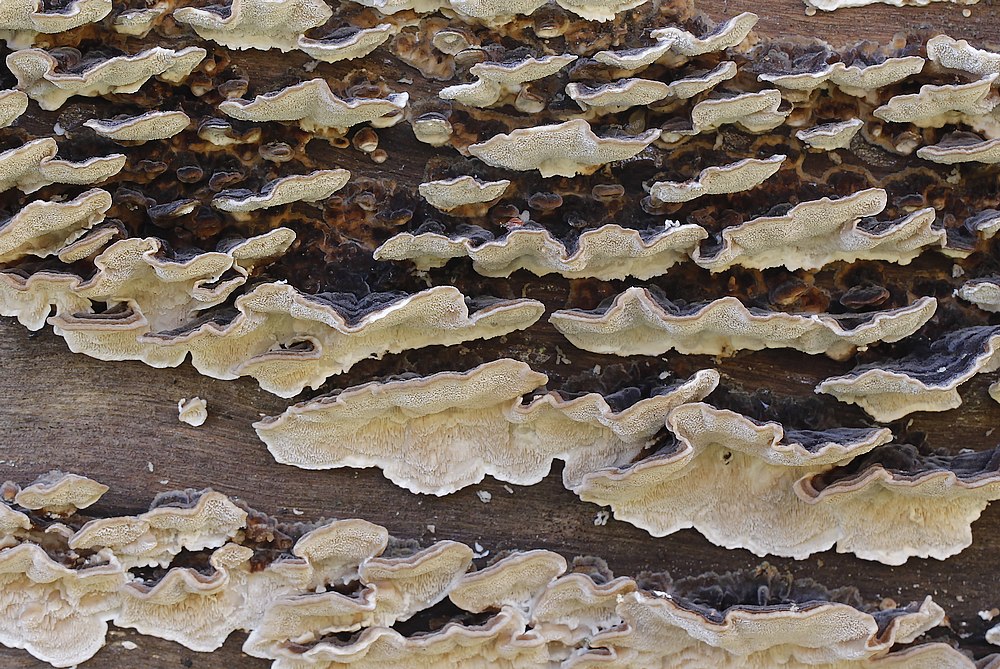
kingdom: Fungi
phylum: Basidiomycota
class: Agaricomycetes
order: Polyporales
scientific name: Polyporales
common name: poresvampordenen
